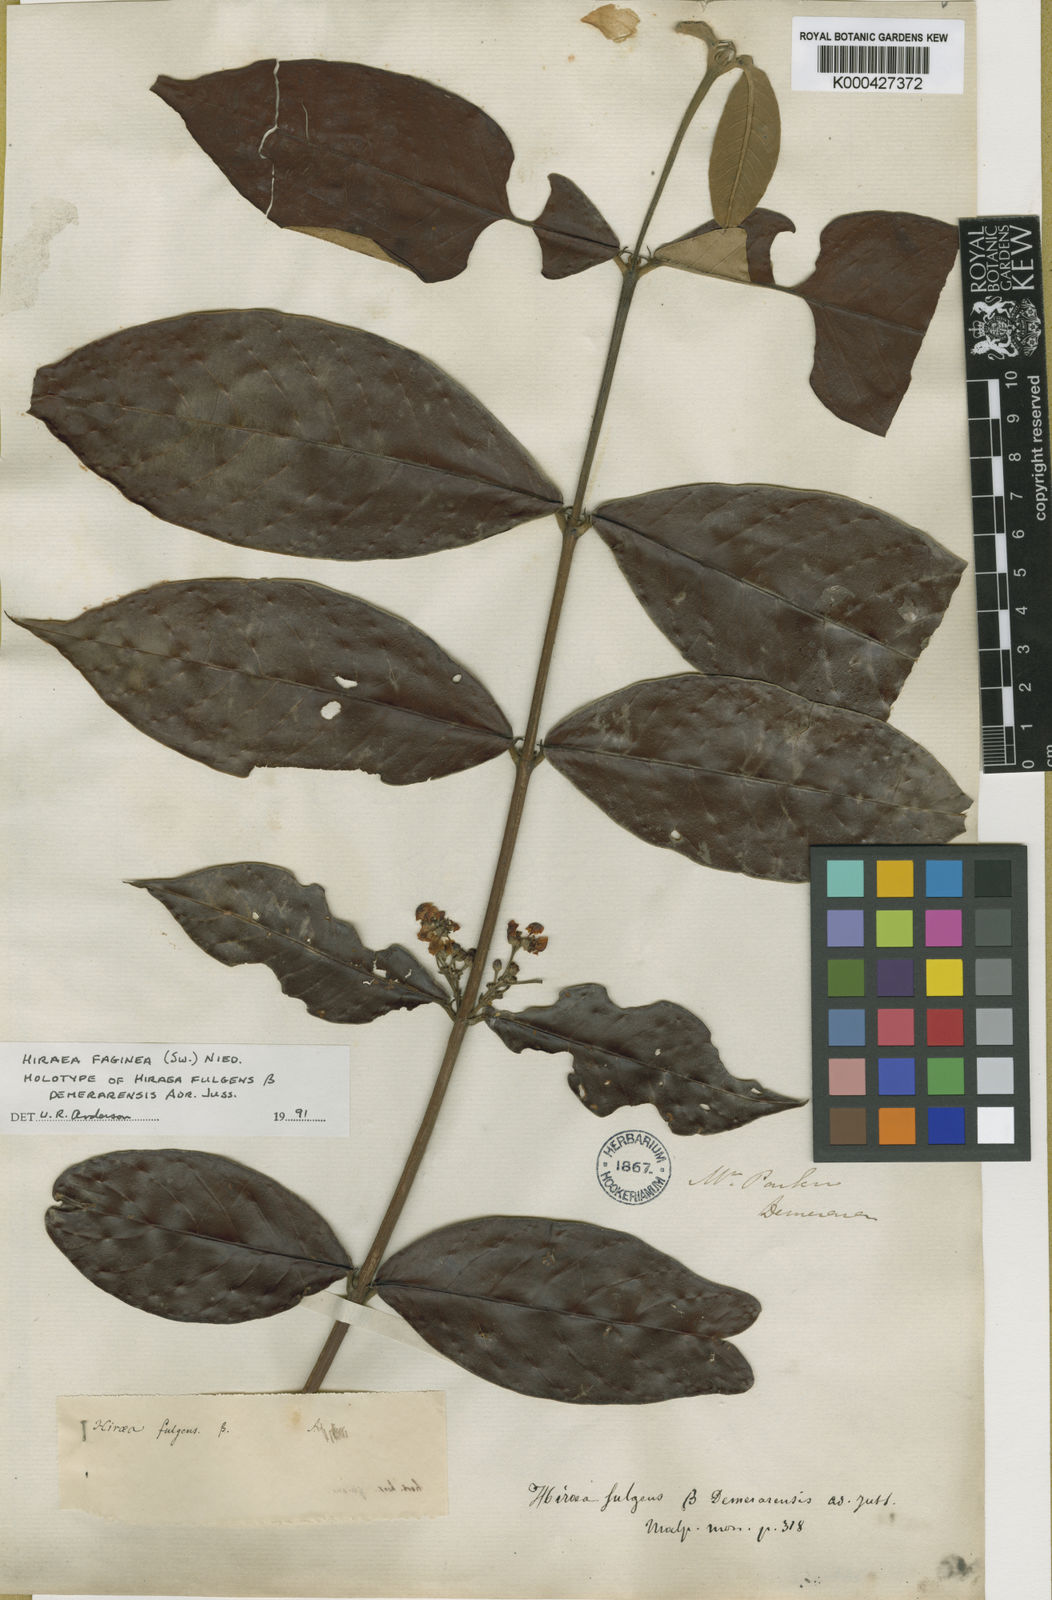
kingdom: Plantae
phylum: Tracheophyta
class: Magnoliopsida
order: Malpighiales
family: Malpighiaceae
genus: Hiraea
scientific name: Hiraea faginea
